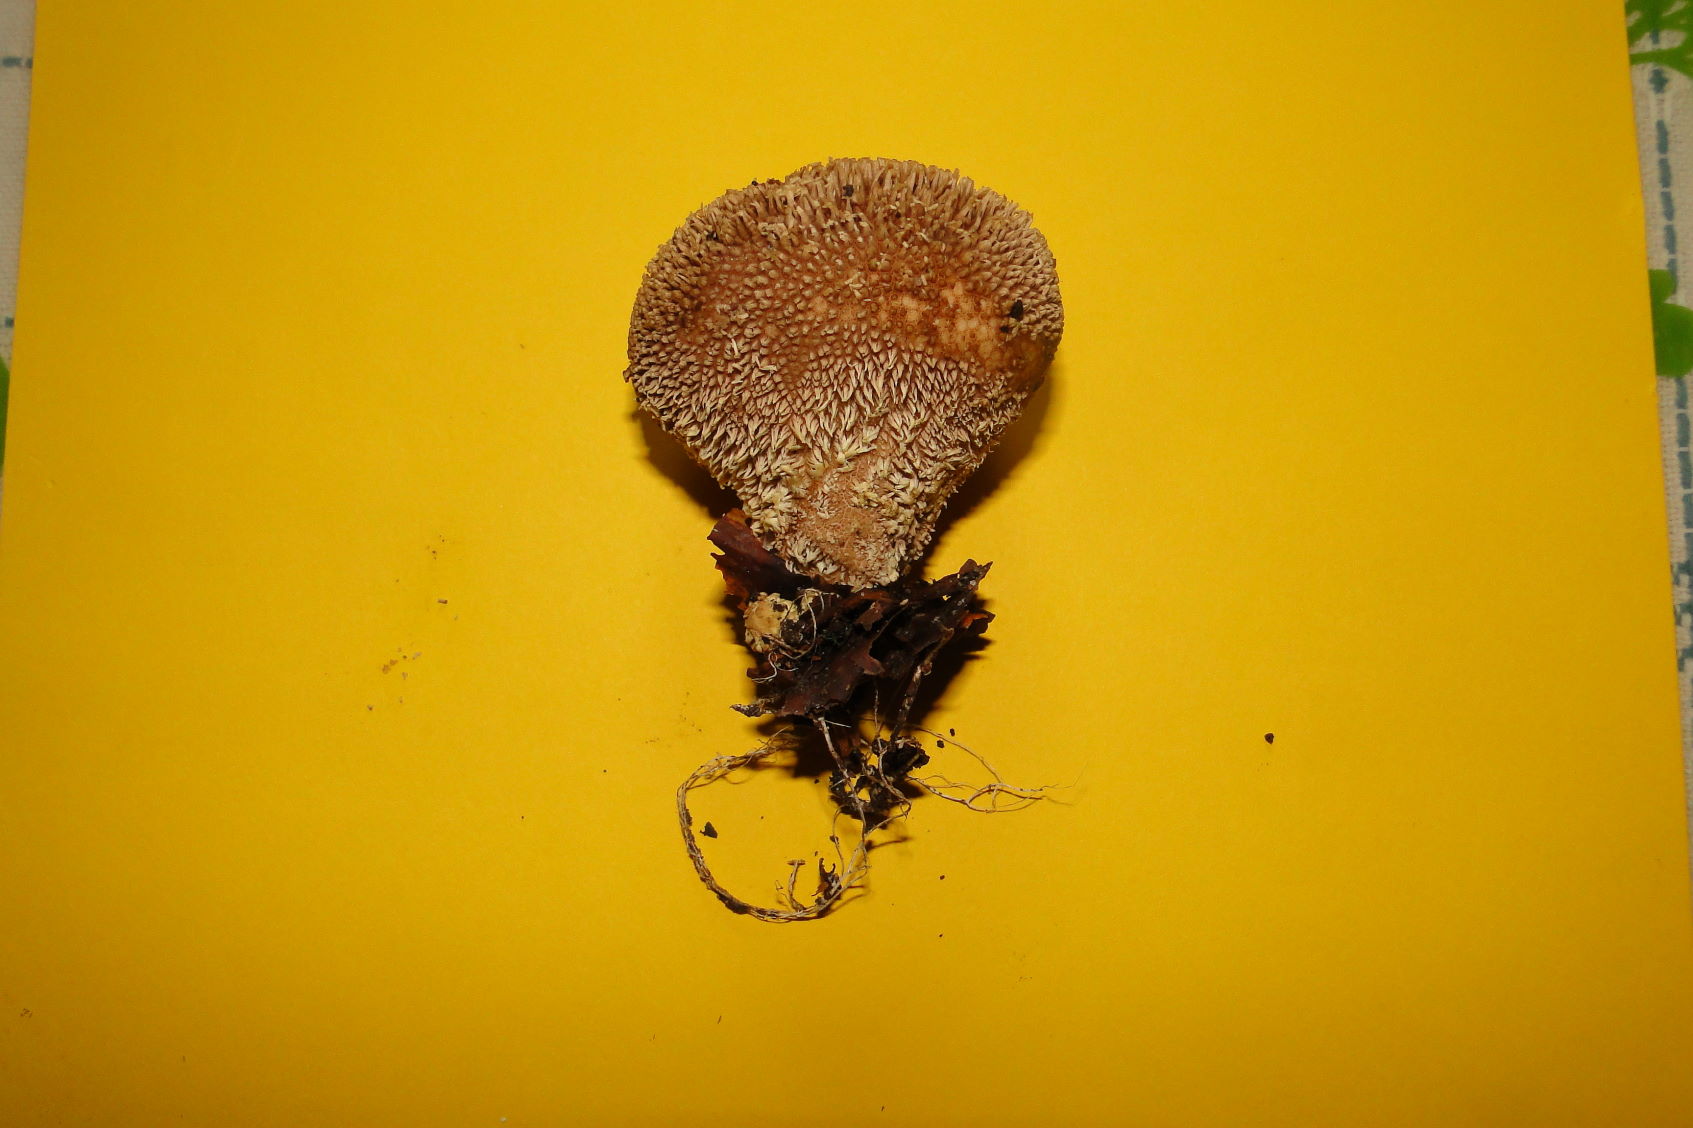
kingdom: Fungi
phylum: Basidiomycota
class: Agaricomycetes
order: Agaricales
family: Lycoperdaceae
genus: Lycoperdon
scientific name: Lycoperdon echinatum
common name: pindsvine-støvbold
